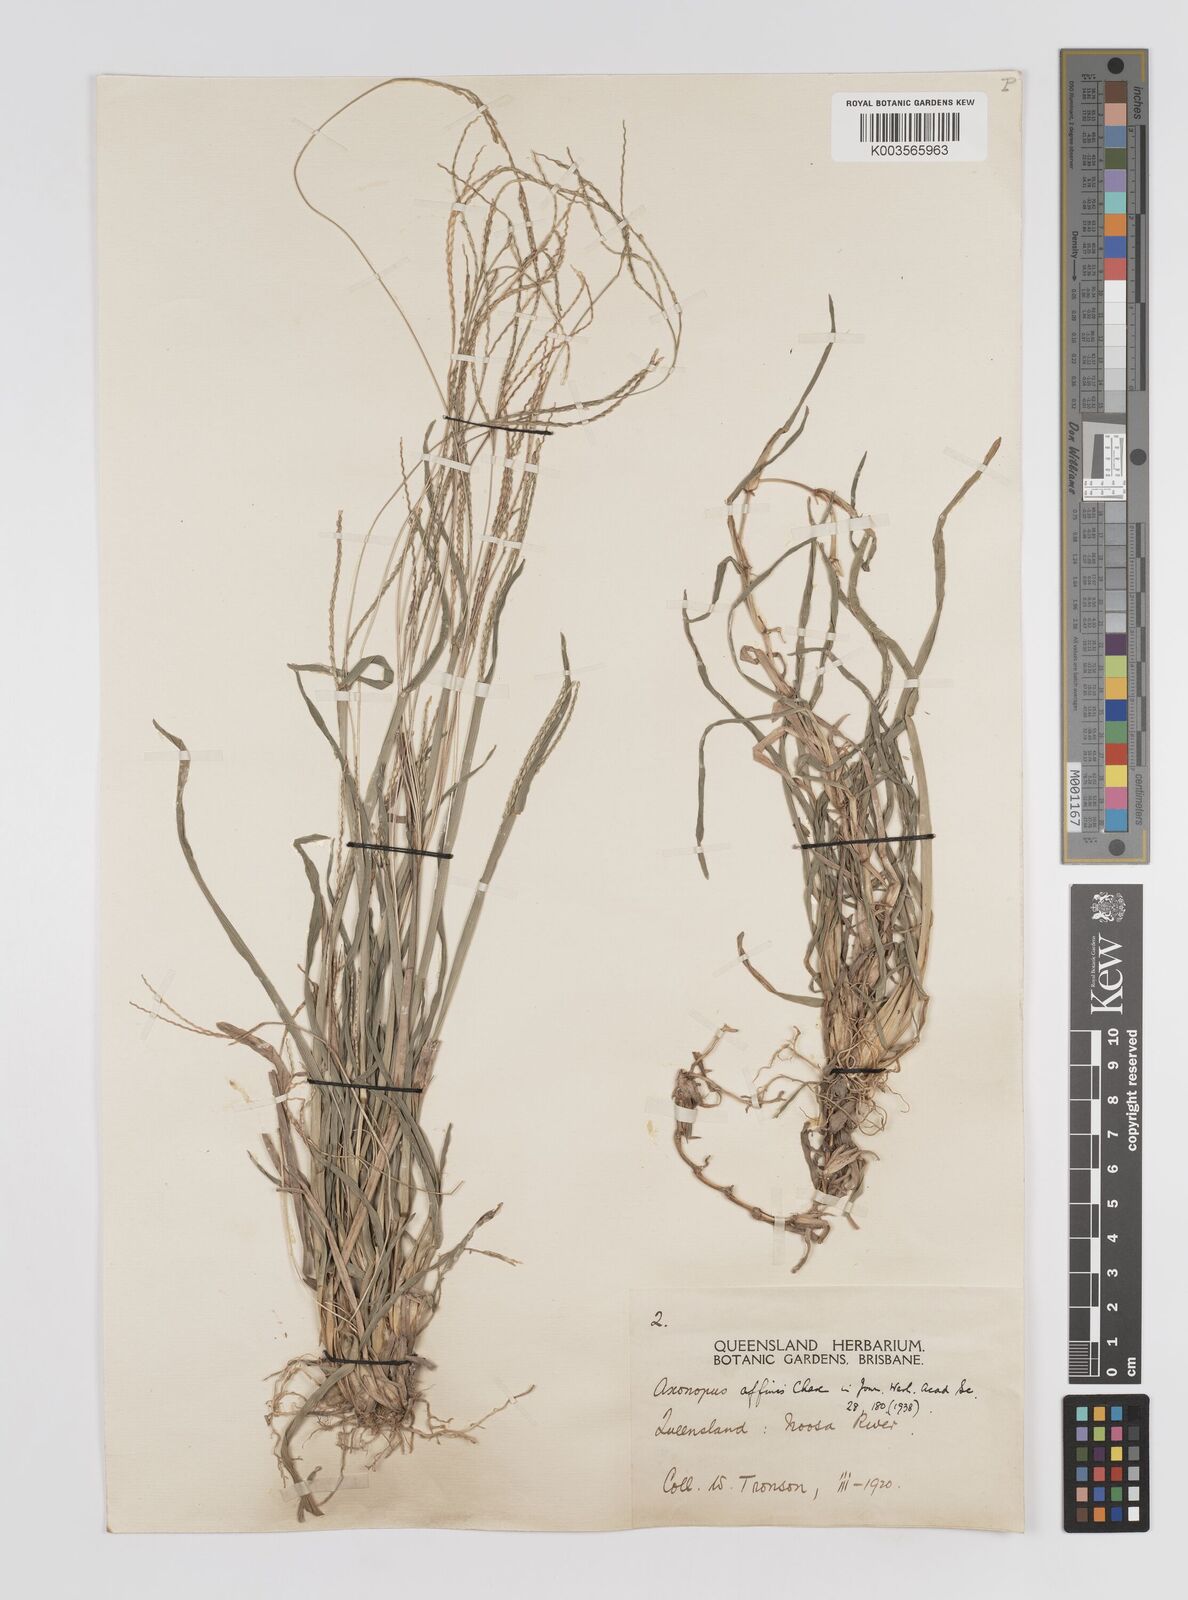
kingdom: Plantae
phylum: Tracheophyta
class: Liliopsida
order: Poales
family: Poaceae
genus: Axonopus
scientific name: Axonopus fissifolius
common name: Common carpetgrass
